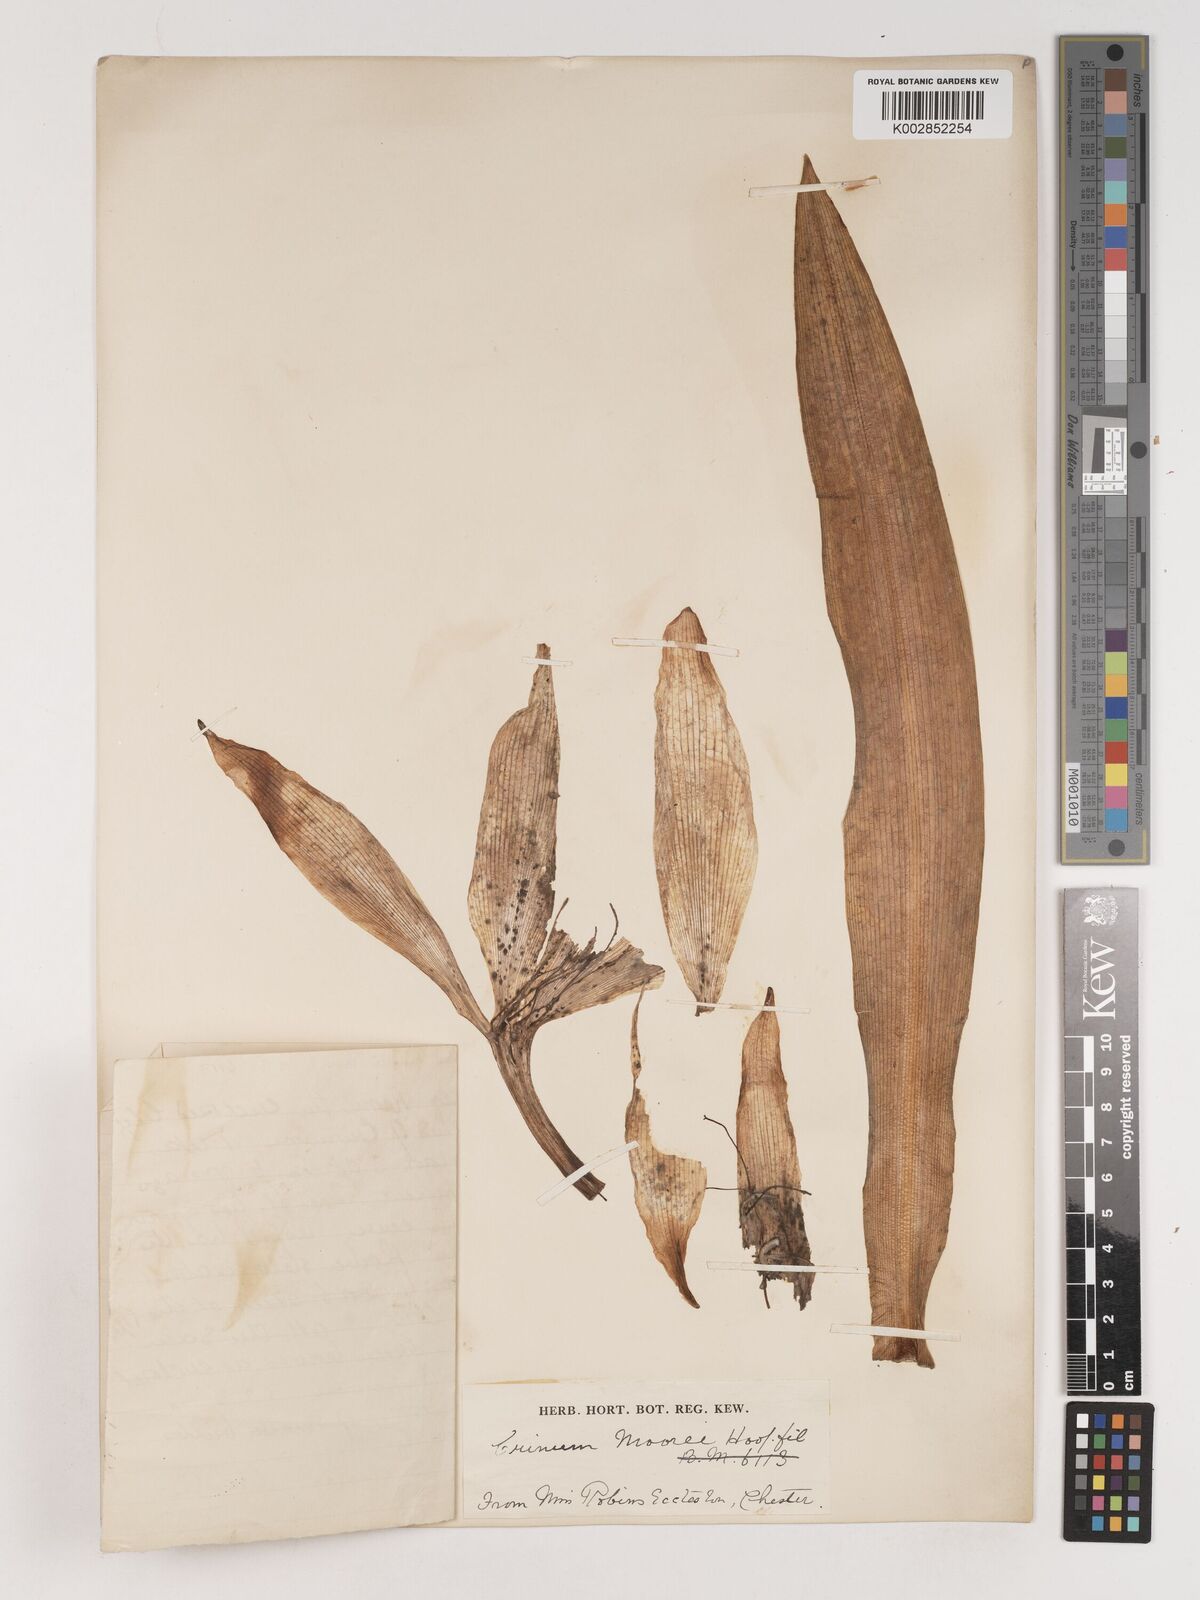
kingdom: Plantae
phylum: Tracheophyta
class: Liliopsida
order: Asparagales
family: Amaryllidaceae
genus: Crinum
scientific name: Crinum moorei
